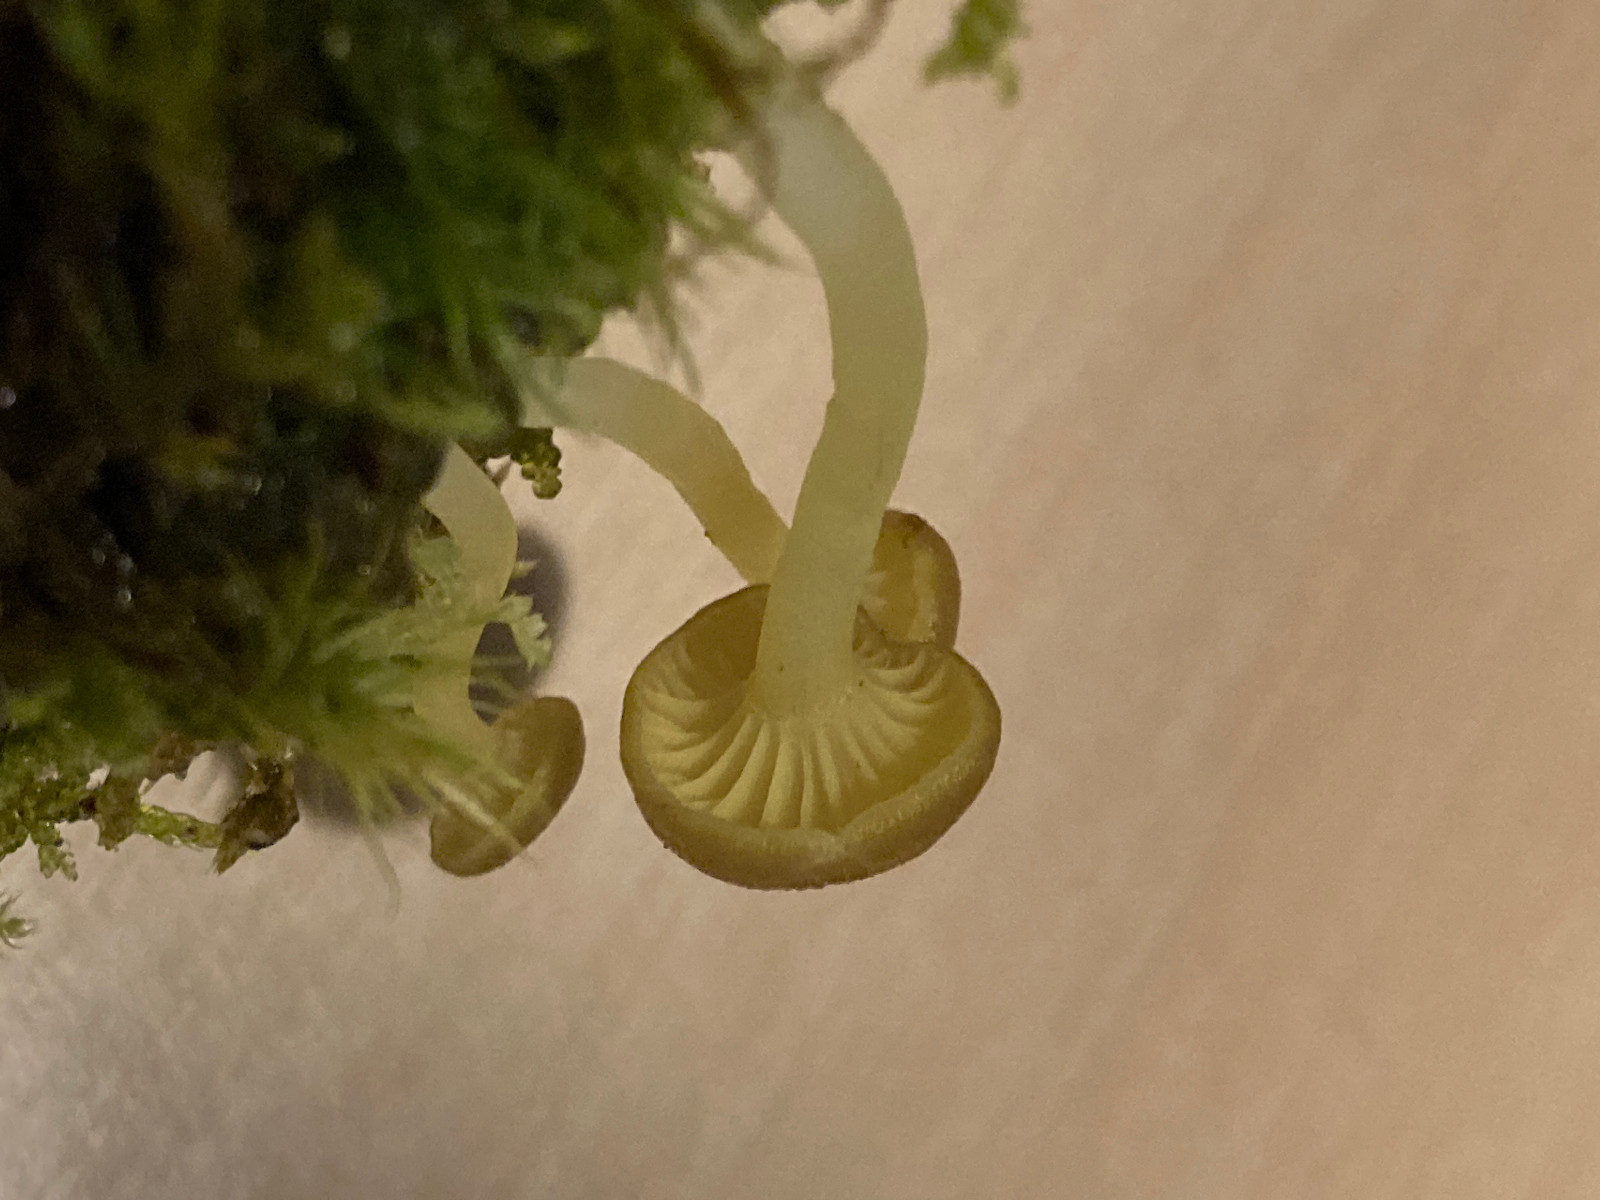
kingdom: Fungi
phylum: Basidiomycota
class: Agaricomycetes
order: Agaricales
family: Hygrophoraceae
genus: Chrysomphalina
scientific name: Chrysomphalina grossula
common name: stød-gyldenblad
